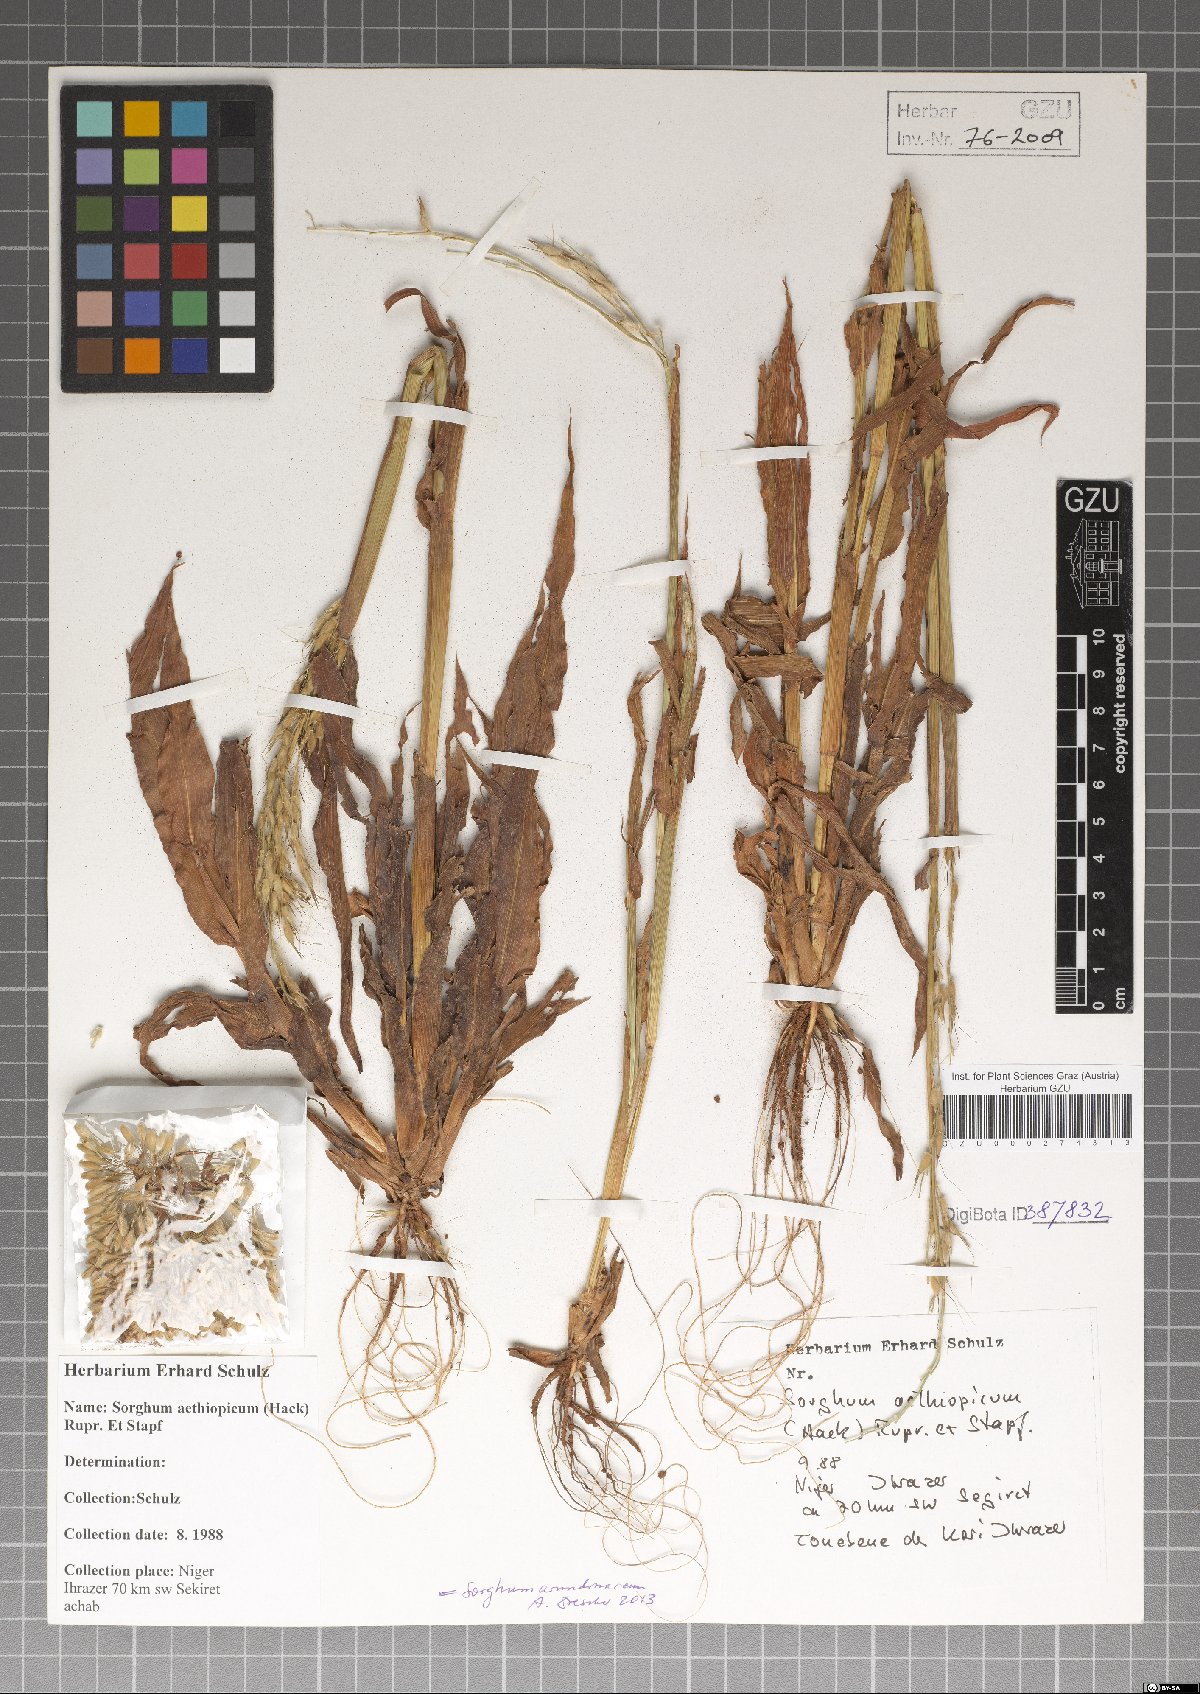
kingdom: Plantae
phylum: Tracheophyta
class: Liliopsida
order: Poales
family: Poaceae
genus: Sorghum
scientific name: Sorghum arundinaceum
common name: Sorghum
